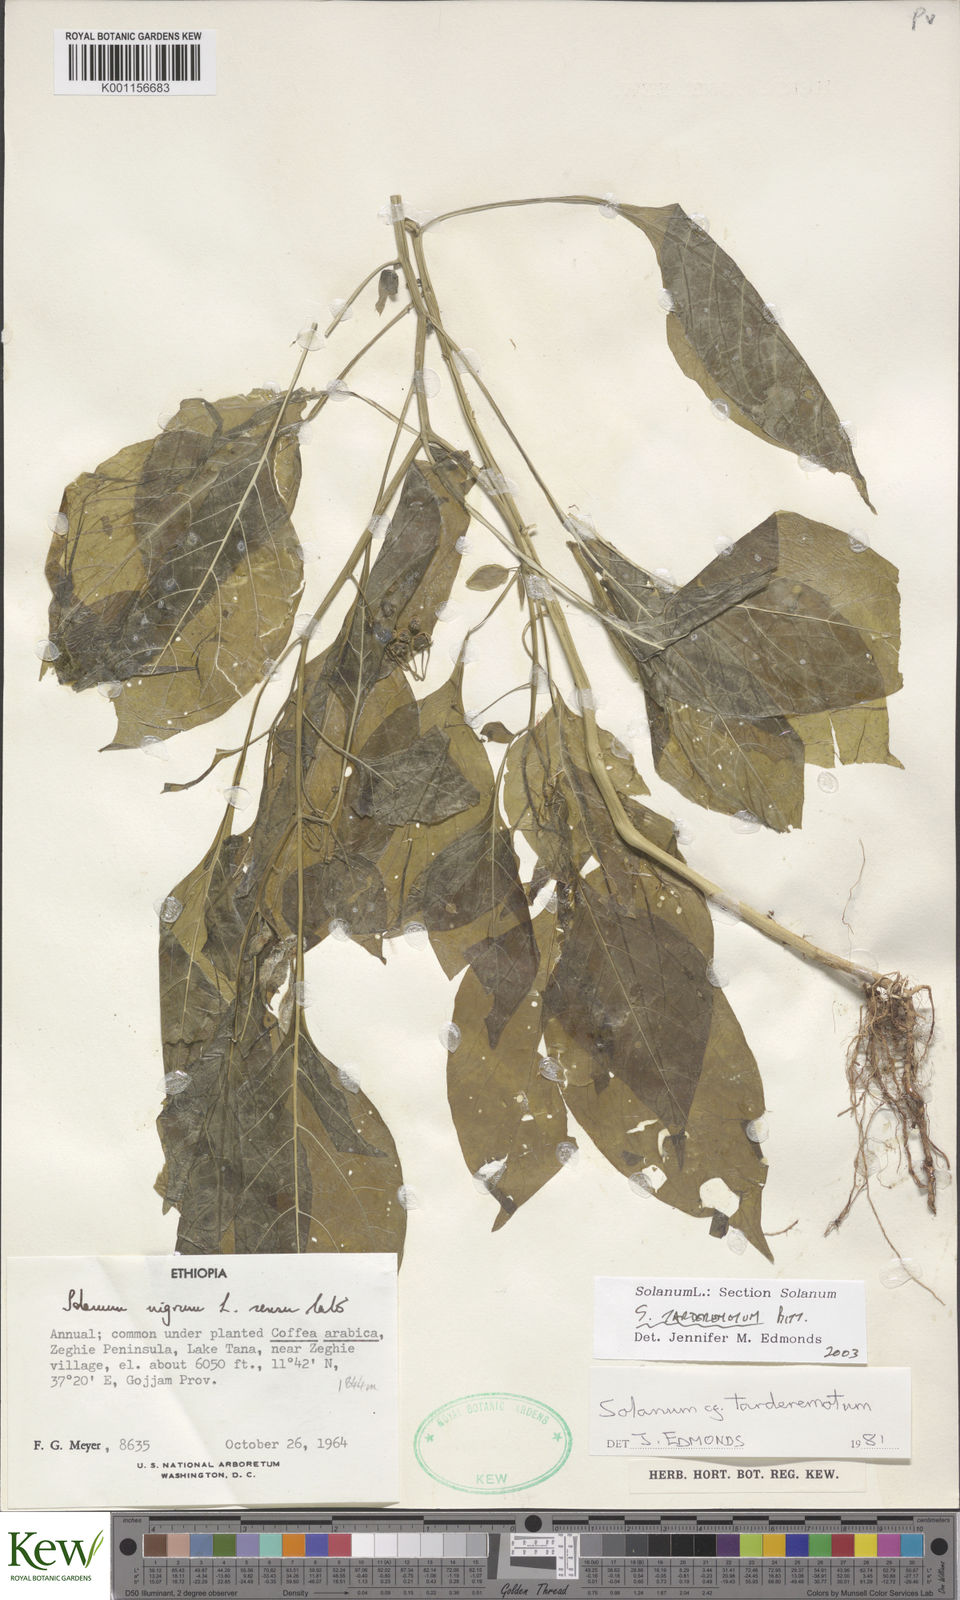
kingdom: Plantae
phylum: Tracheophyta
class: Magnoliopsida
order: Solanales
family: Solanaceae
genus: Solanum
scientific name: Solanum tarderemotum
